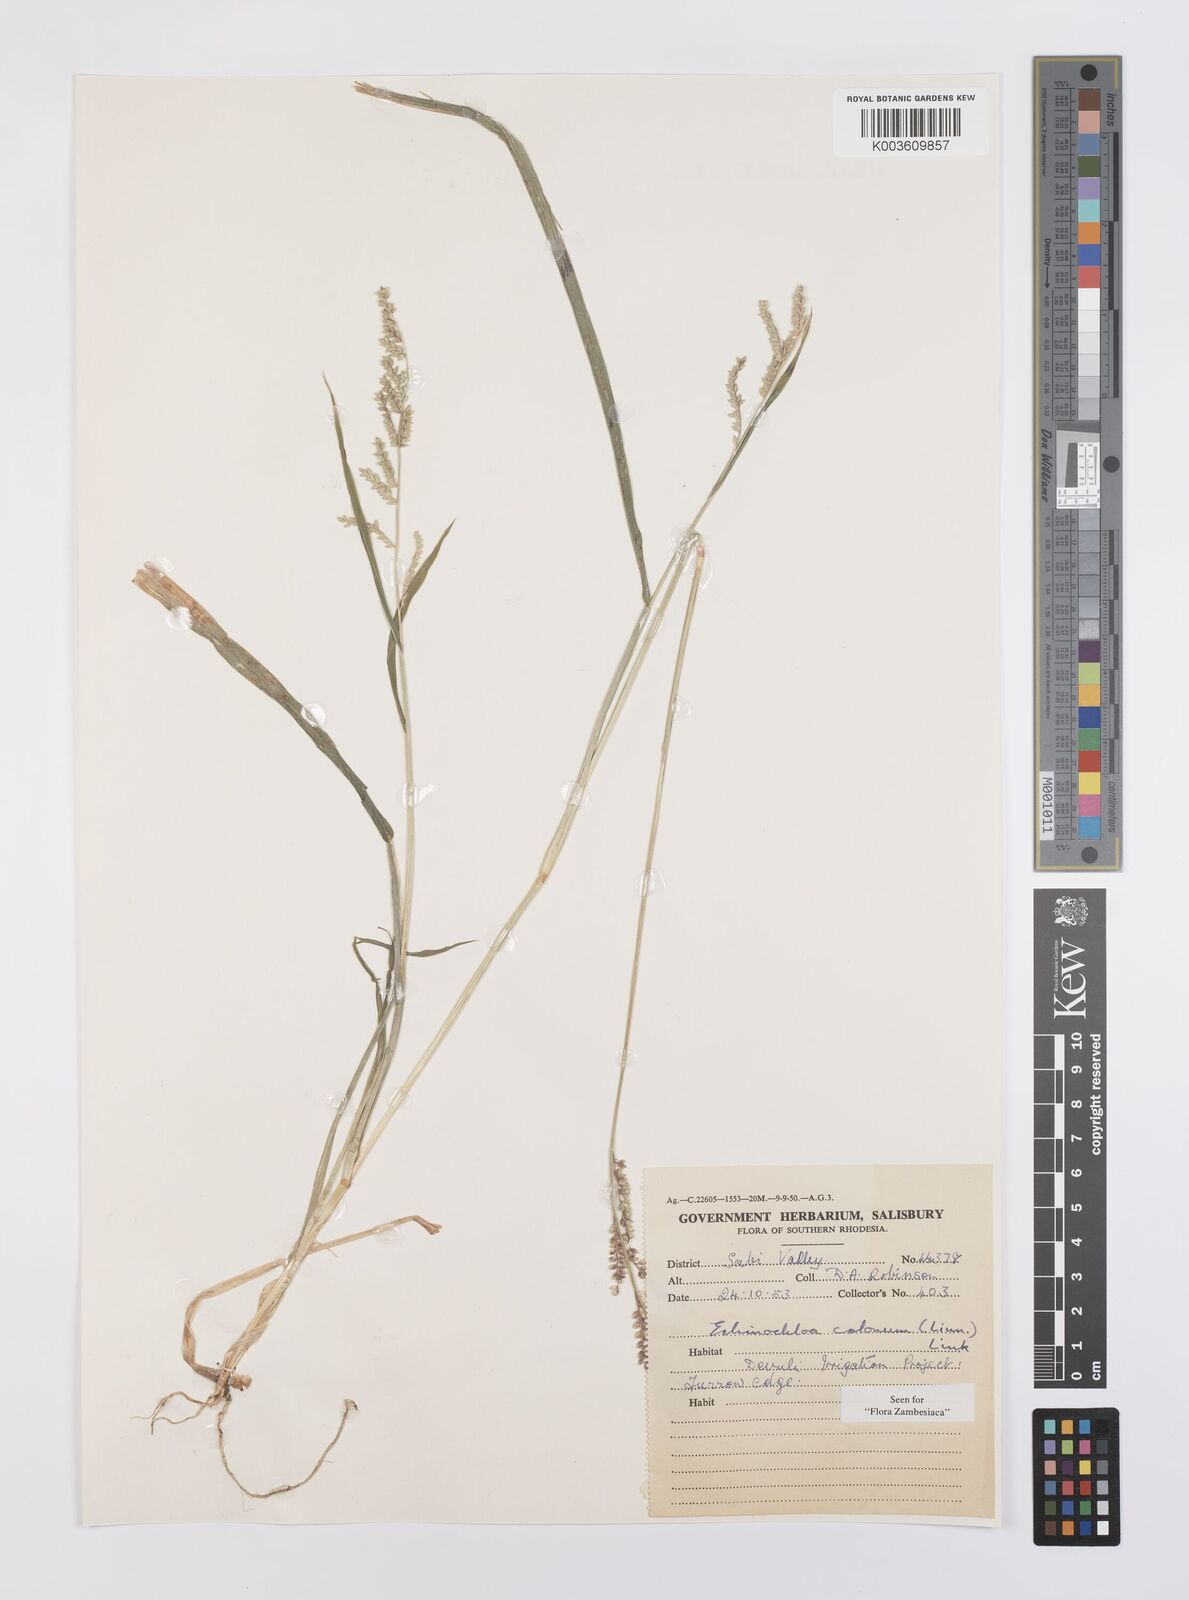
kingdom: Plantae
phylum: Tracheophyta
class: Liliopsida
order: Poales
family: Poaceae
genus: Echinochloa
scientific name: Echinochloa colonum
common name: Jungle rice
